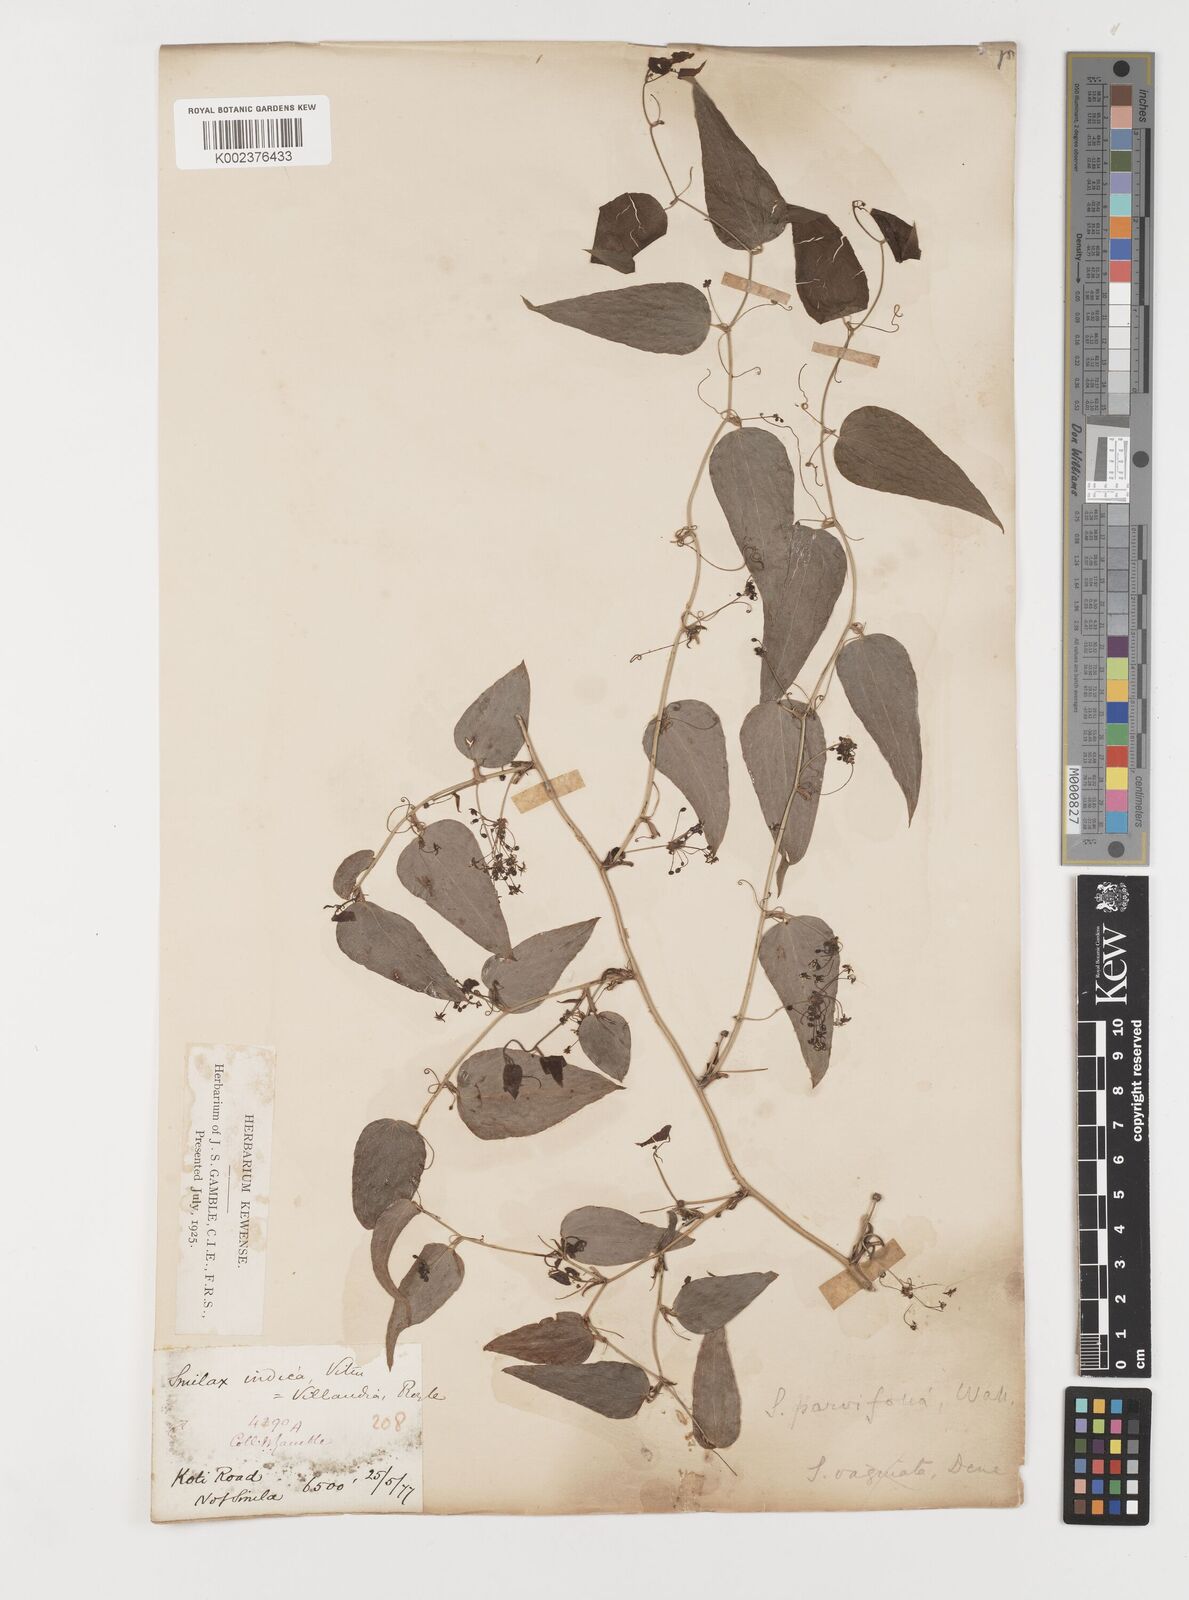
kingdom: Plantae
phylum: Tracheophyta
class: Liliopsida
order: Liliales
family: Smilacaceae
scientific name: Smilacaceae
